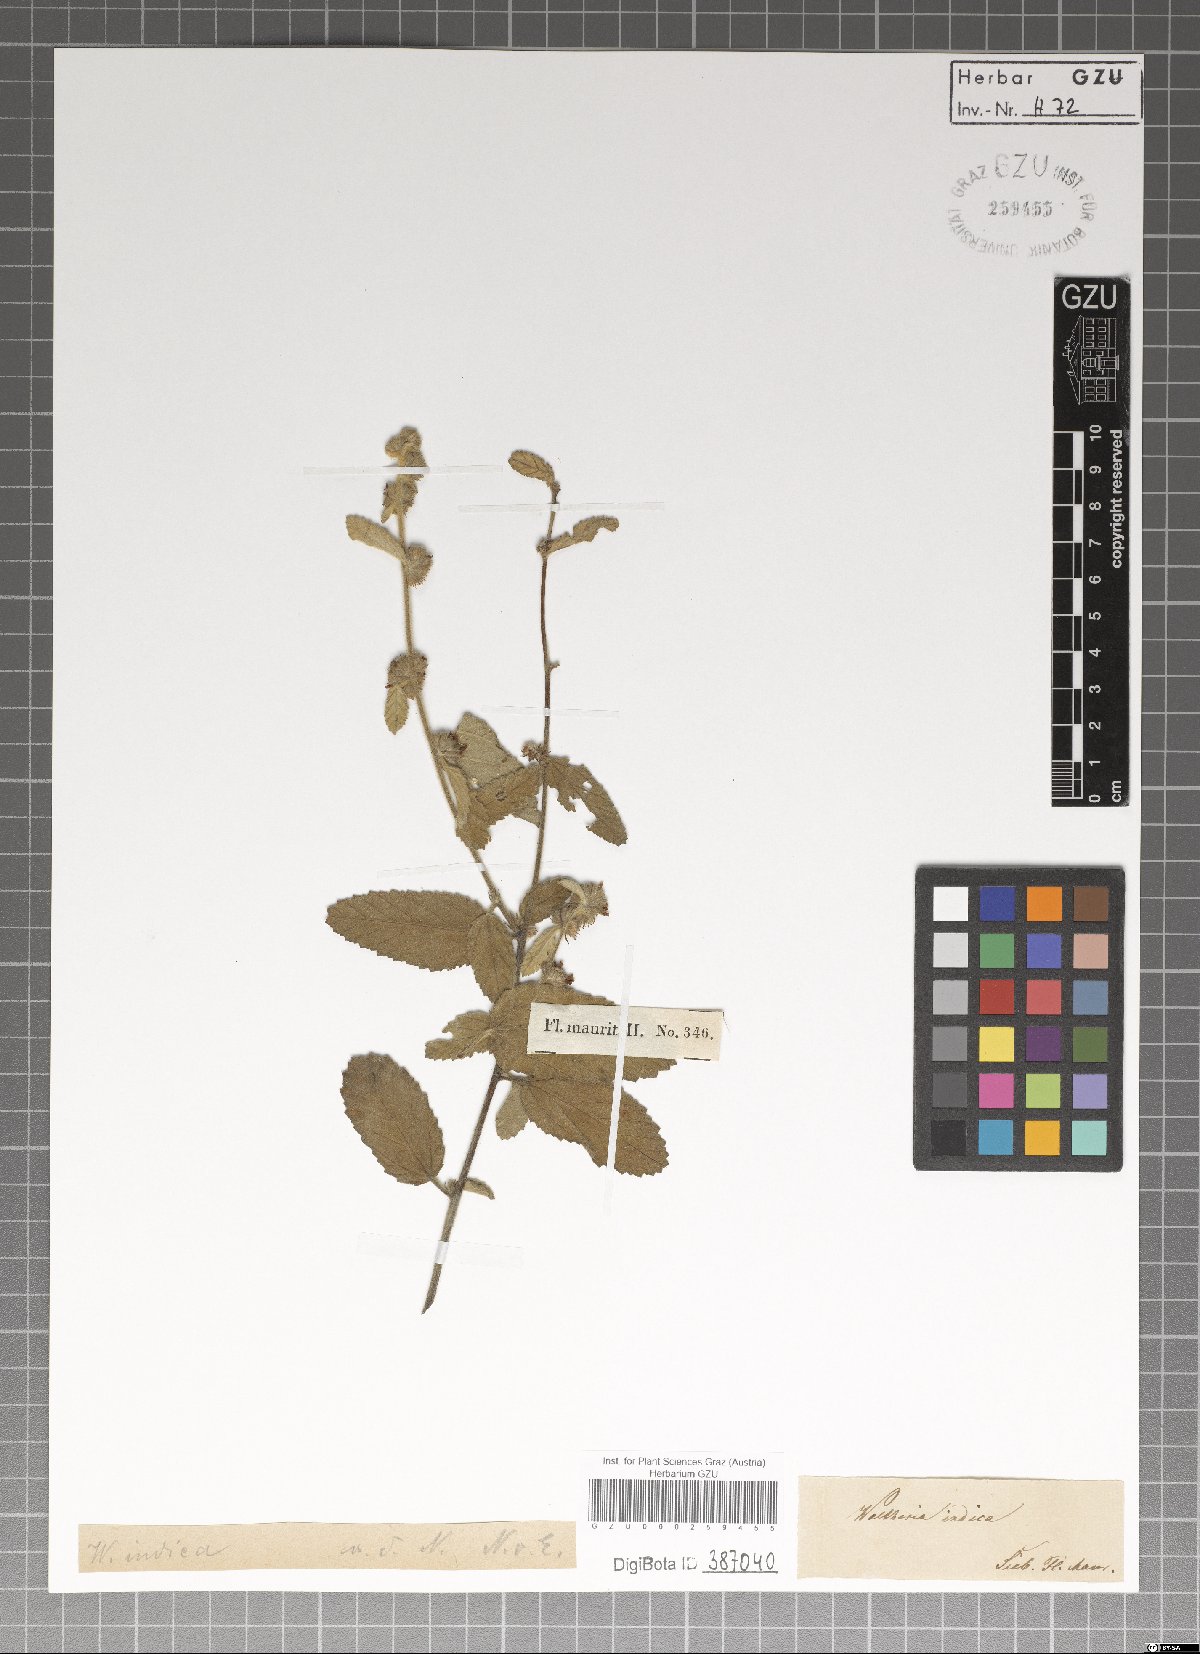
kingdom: Plantae
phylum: Tracheophyta
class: Magnoliopsida
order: Malvales
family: Malvaceae
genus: Waltheria
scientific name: Waltheria indica
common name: Leather-coat
